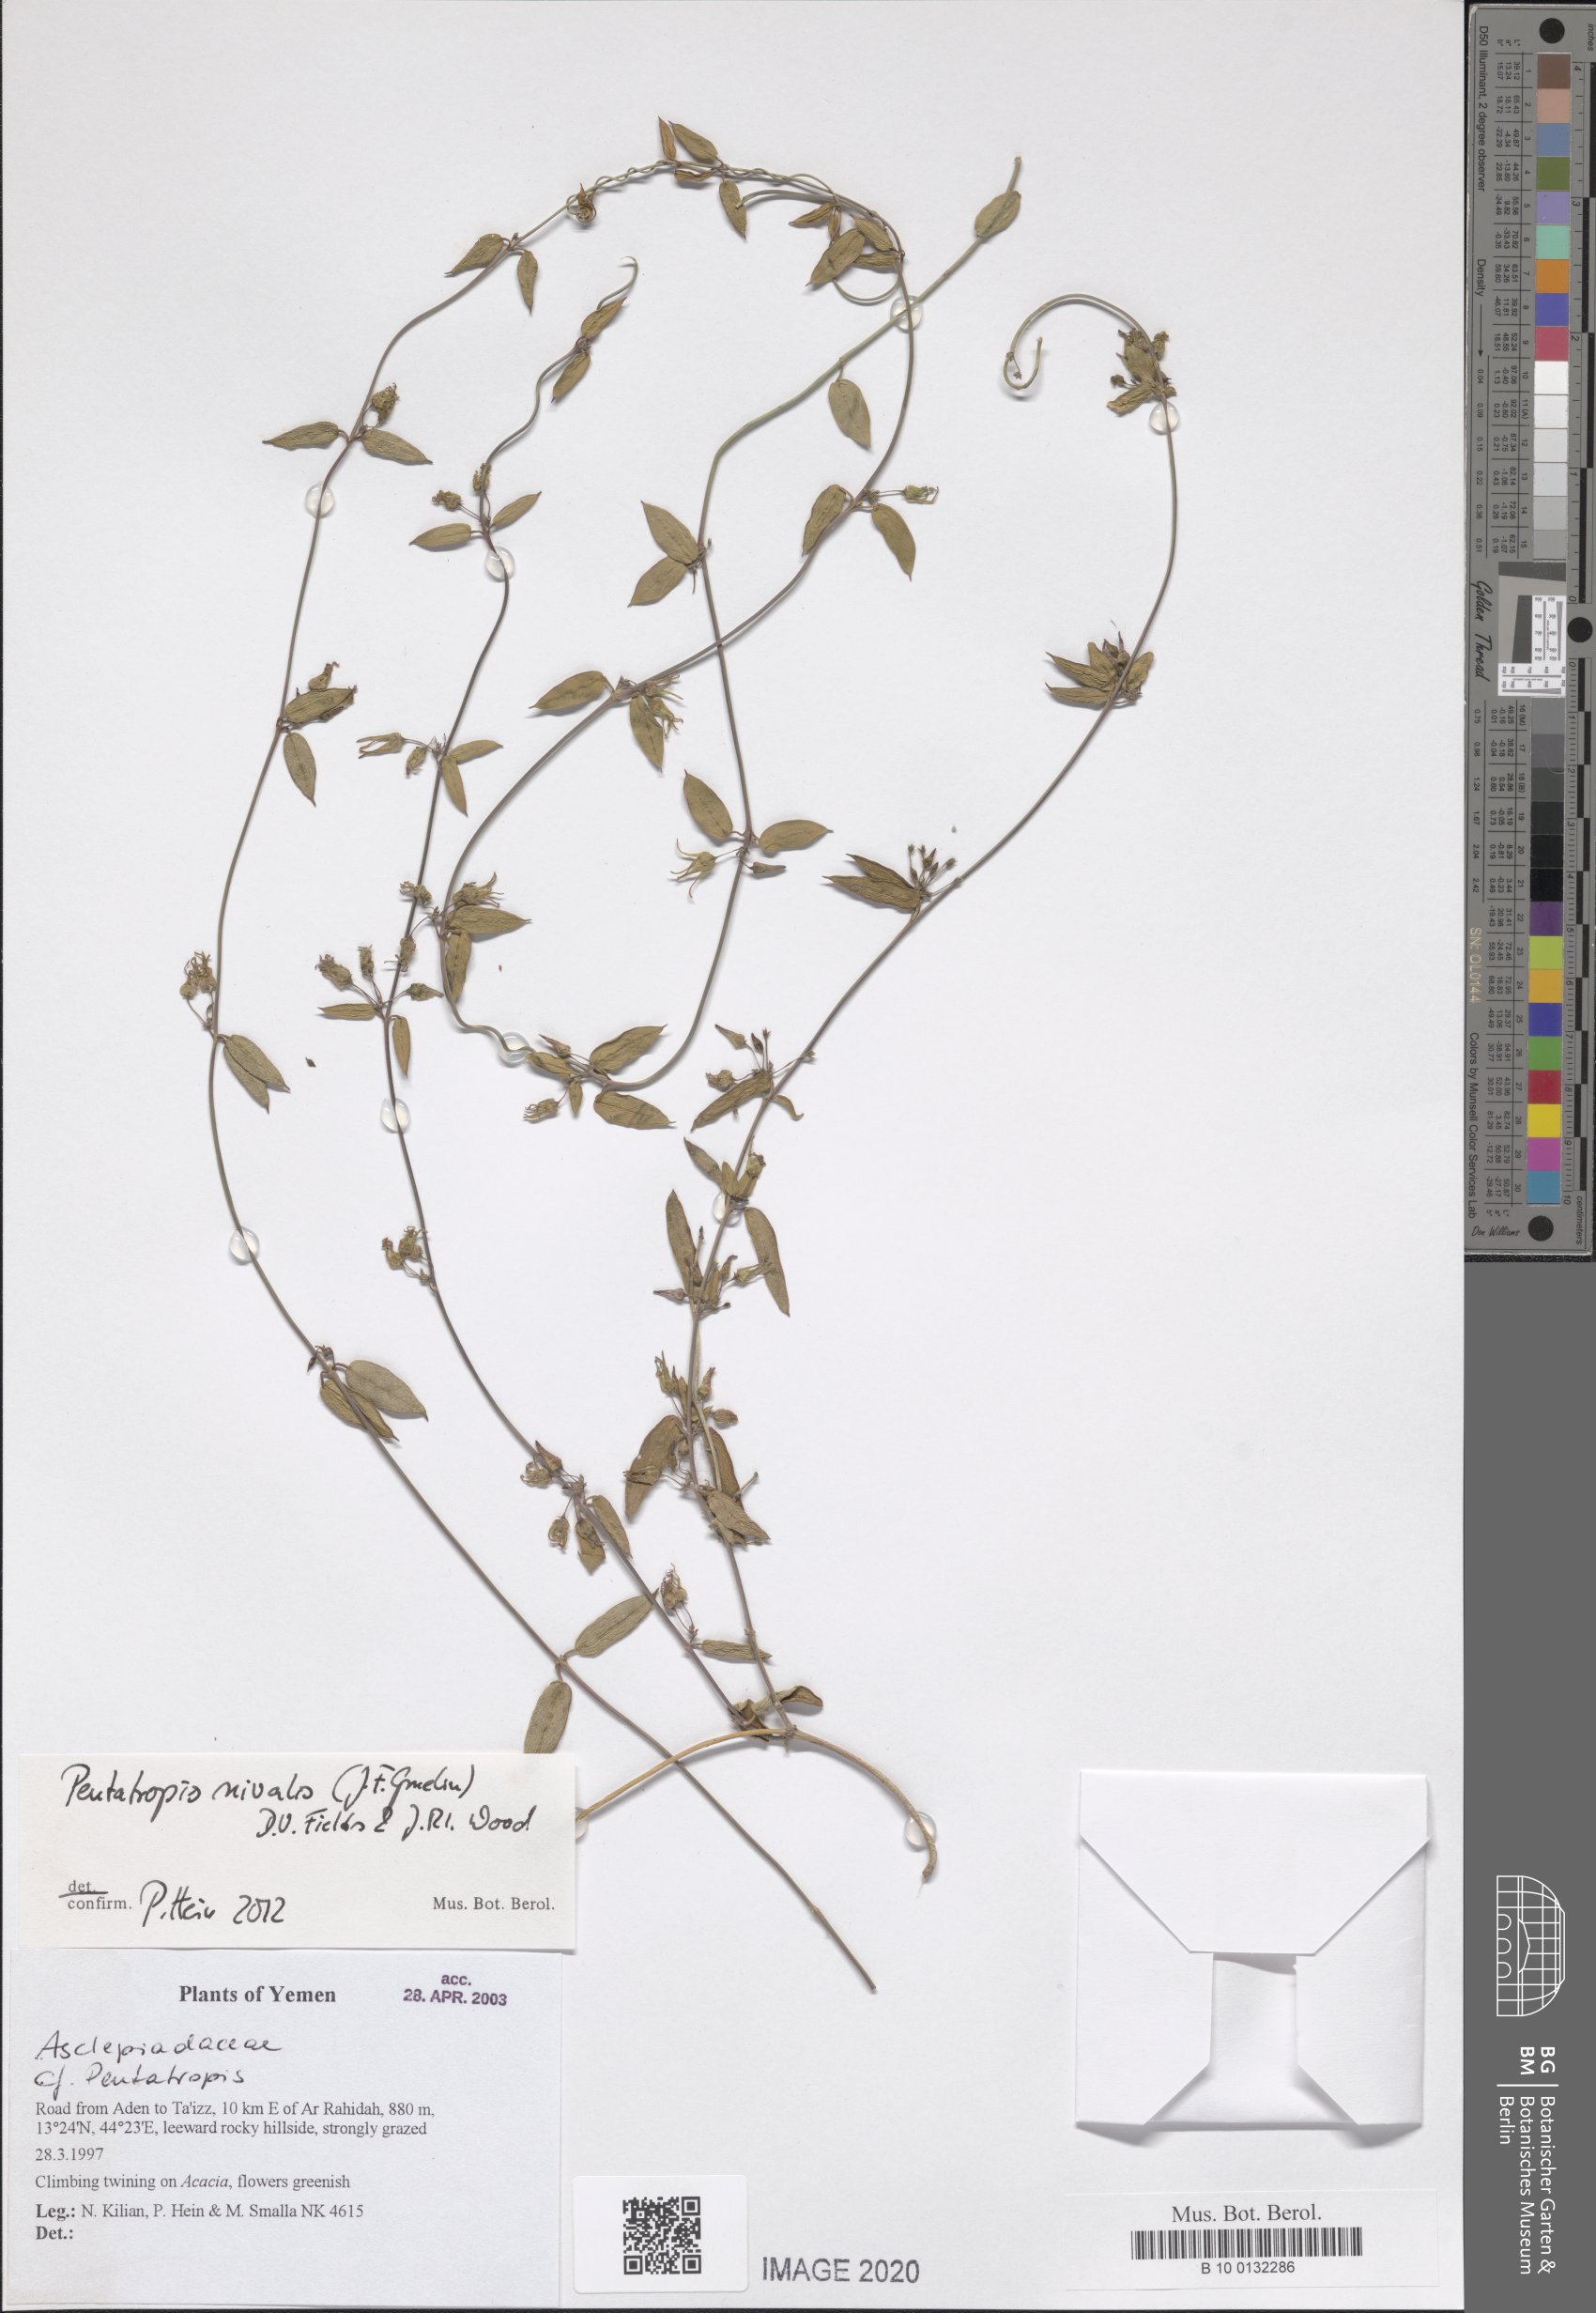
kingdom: Plantae
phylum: Tracheophyta
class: Magnoliopsida
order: Gentianales
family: Apocynaceae
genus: Pentatropis
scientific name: Pentatropis nivalis
